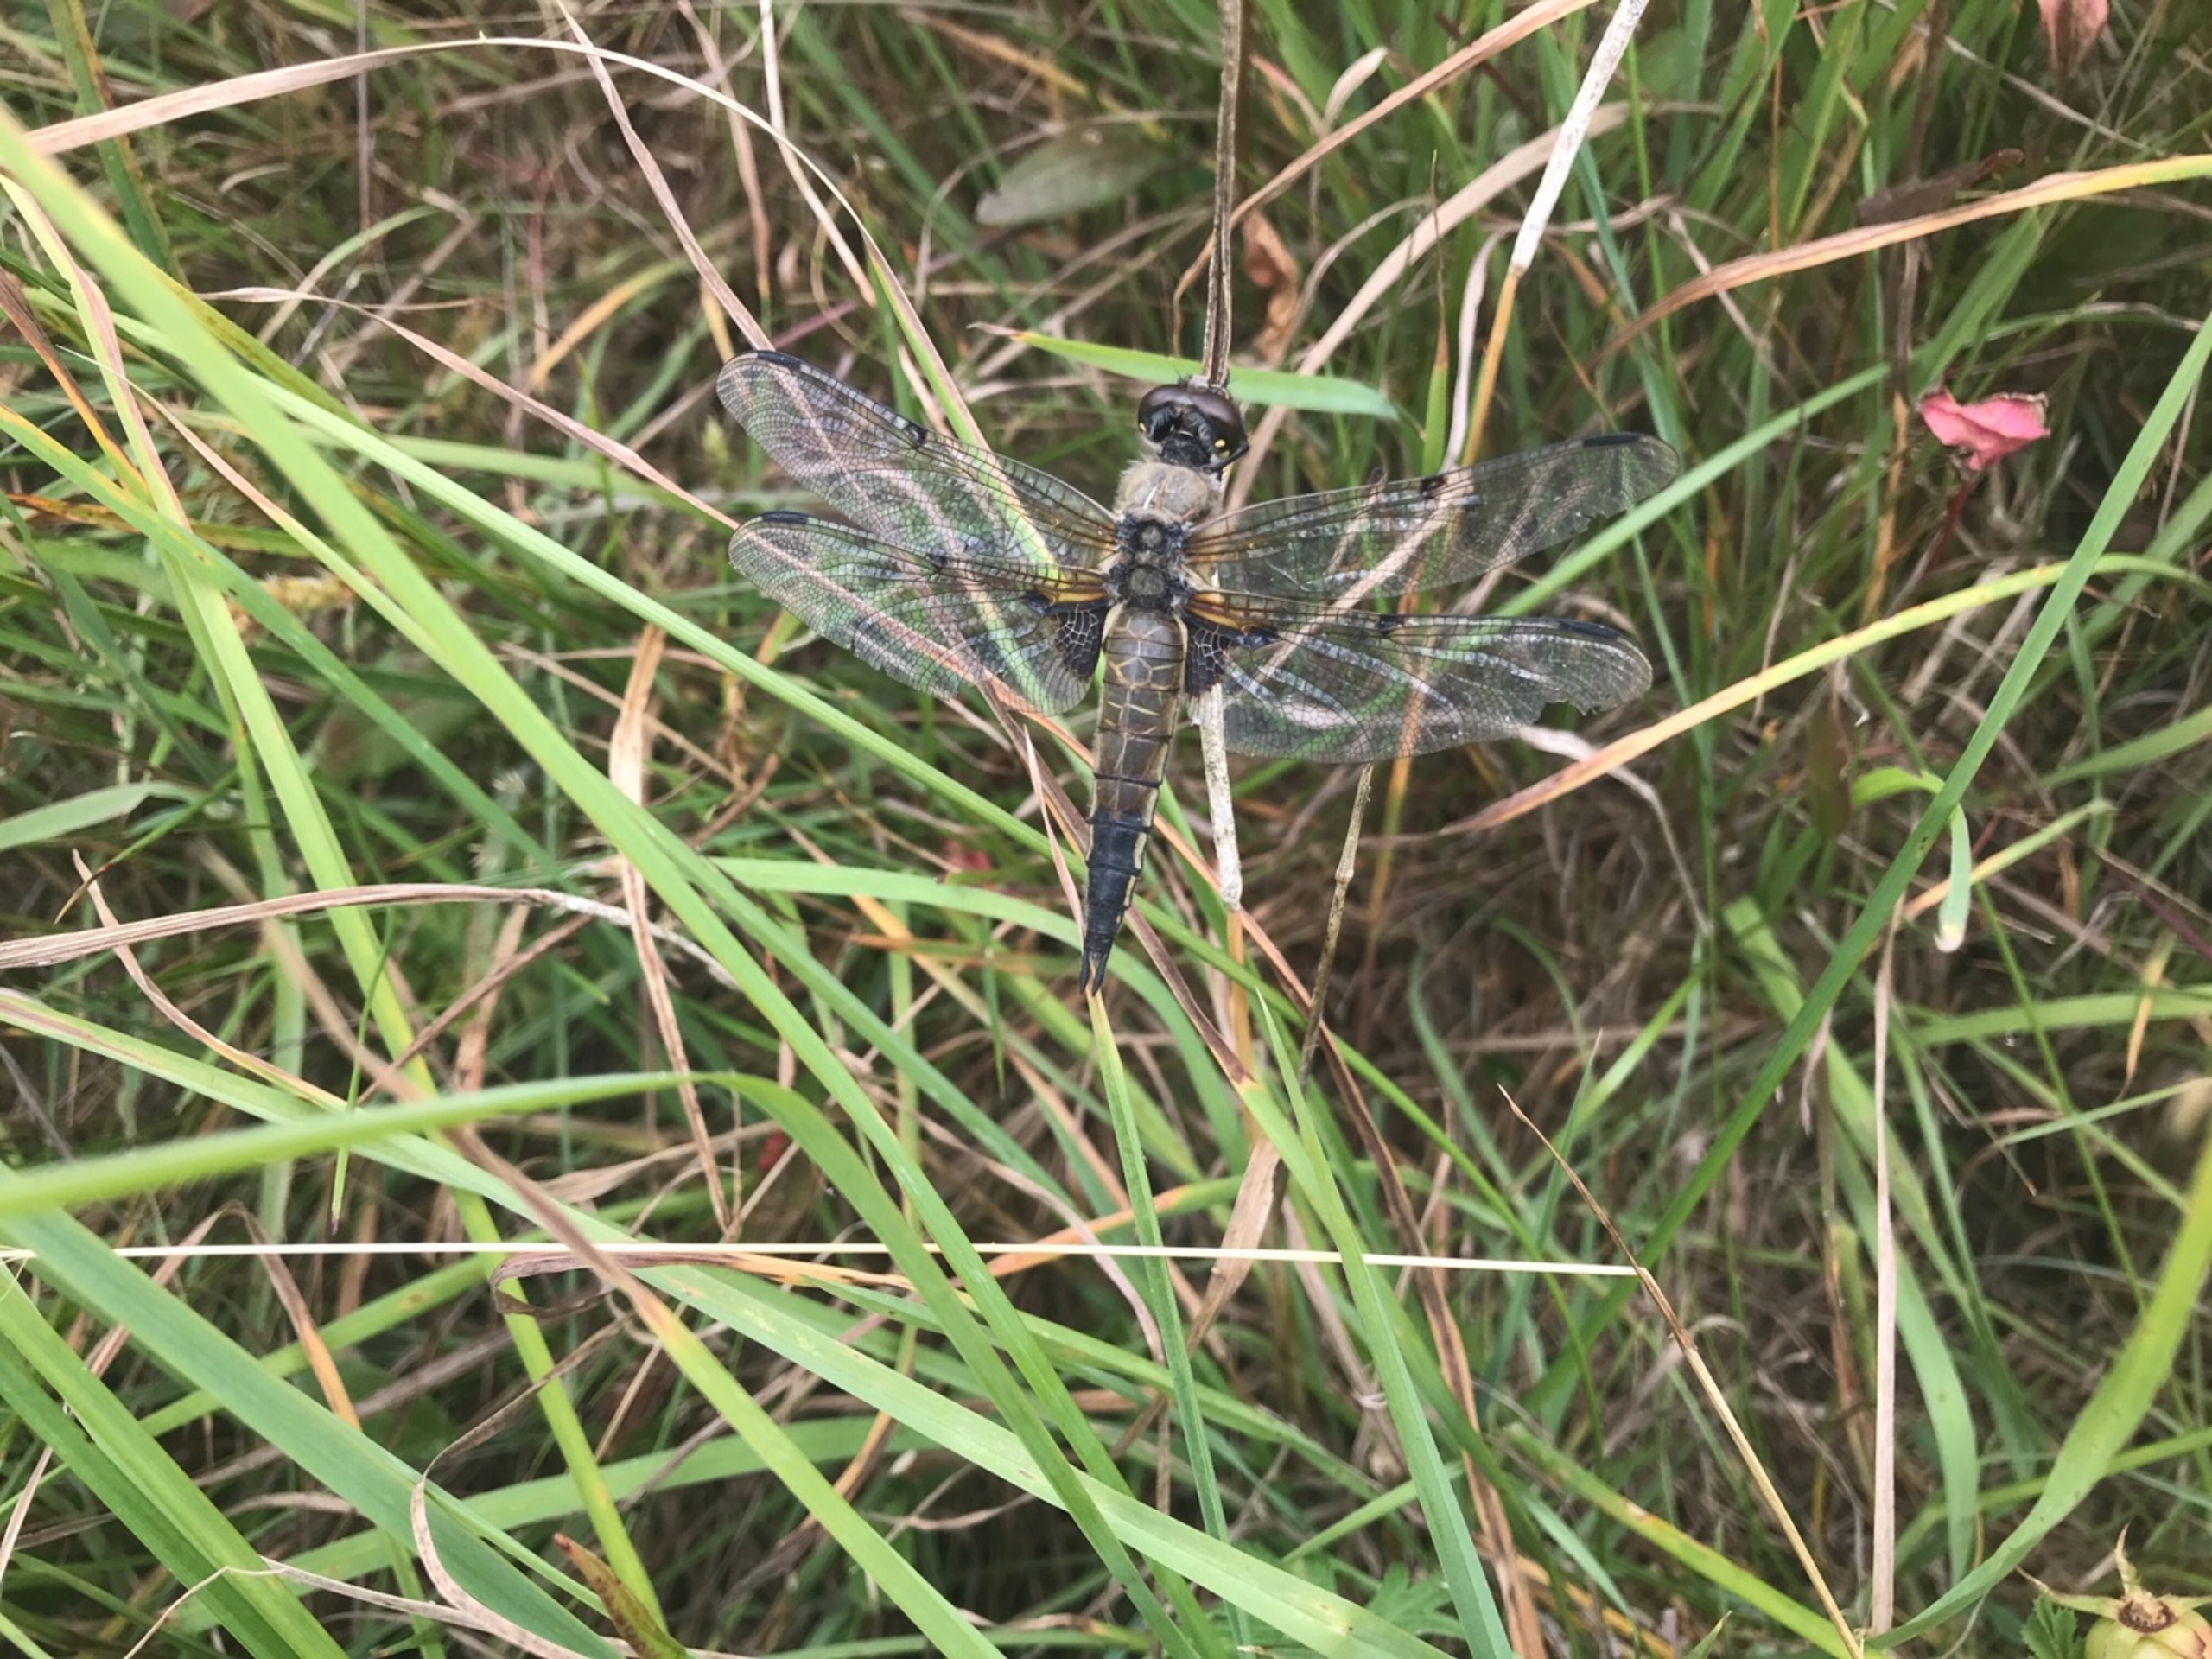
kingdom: Animalia
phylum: Arthropoda
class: Insecta
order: Odonata
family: Libellulidae
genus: Libellula
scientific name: Libellula quadrimaculata
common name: Fireplettet libel
